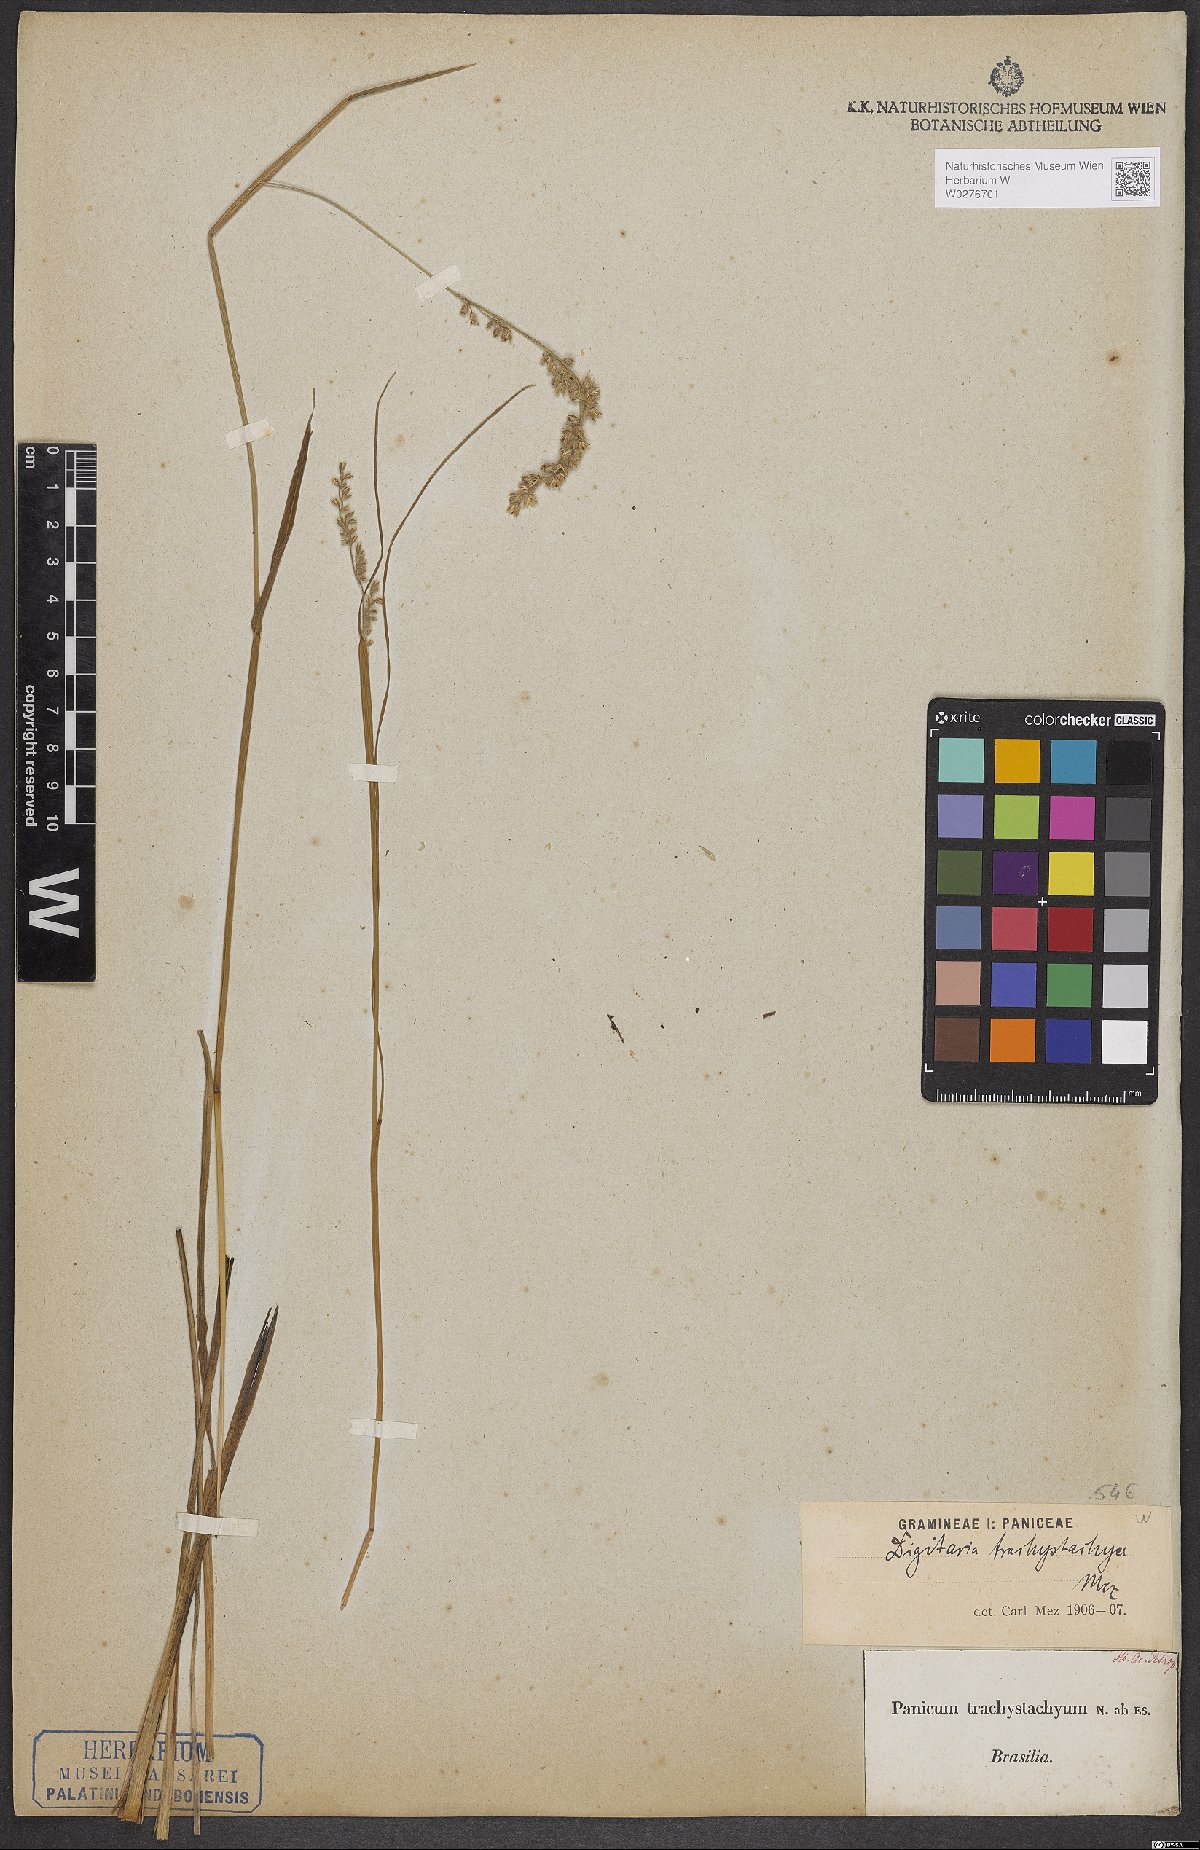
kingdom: Plantae
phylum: Tracheophyta
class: Liliopsida
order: Poales
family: Poaceae
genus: Anthaenantiopsis
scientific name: Anthaenantiopsis trachystachya
